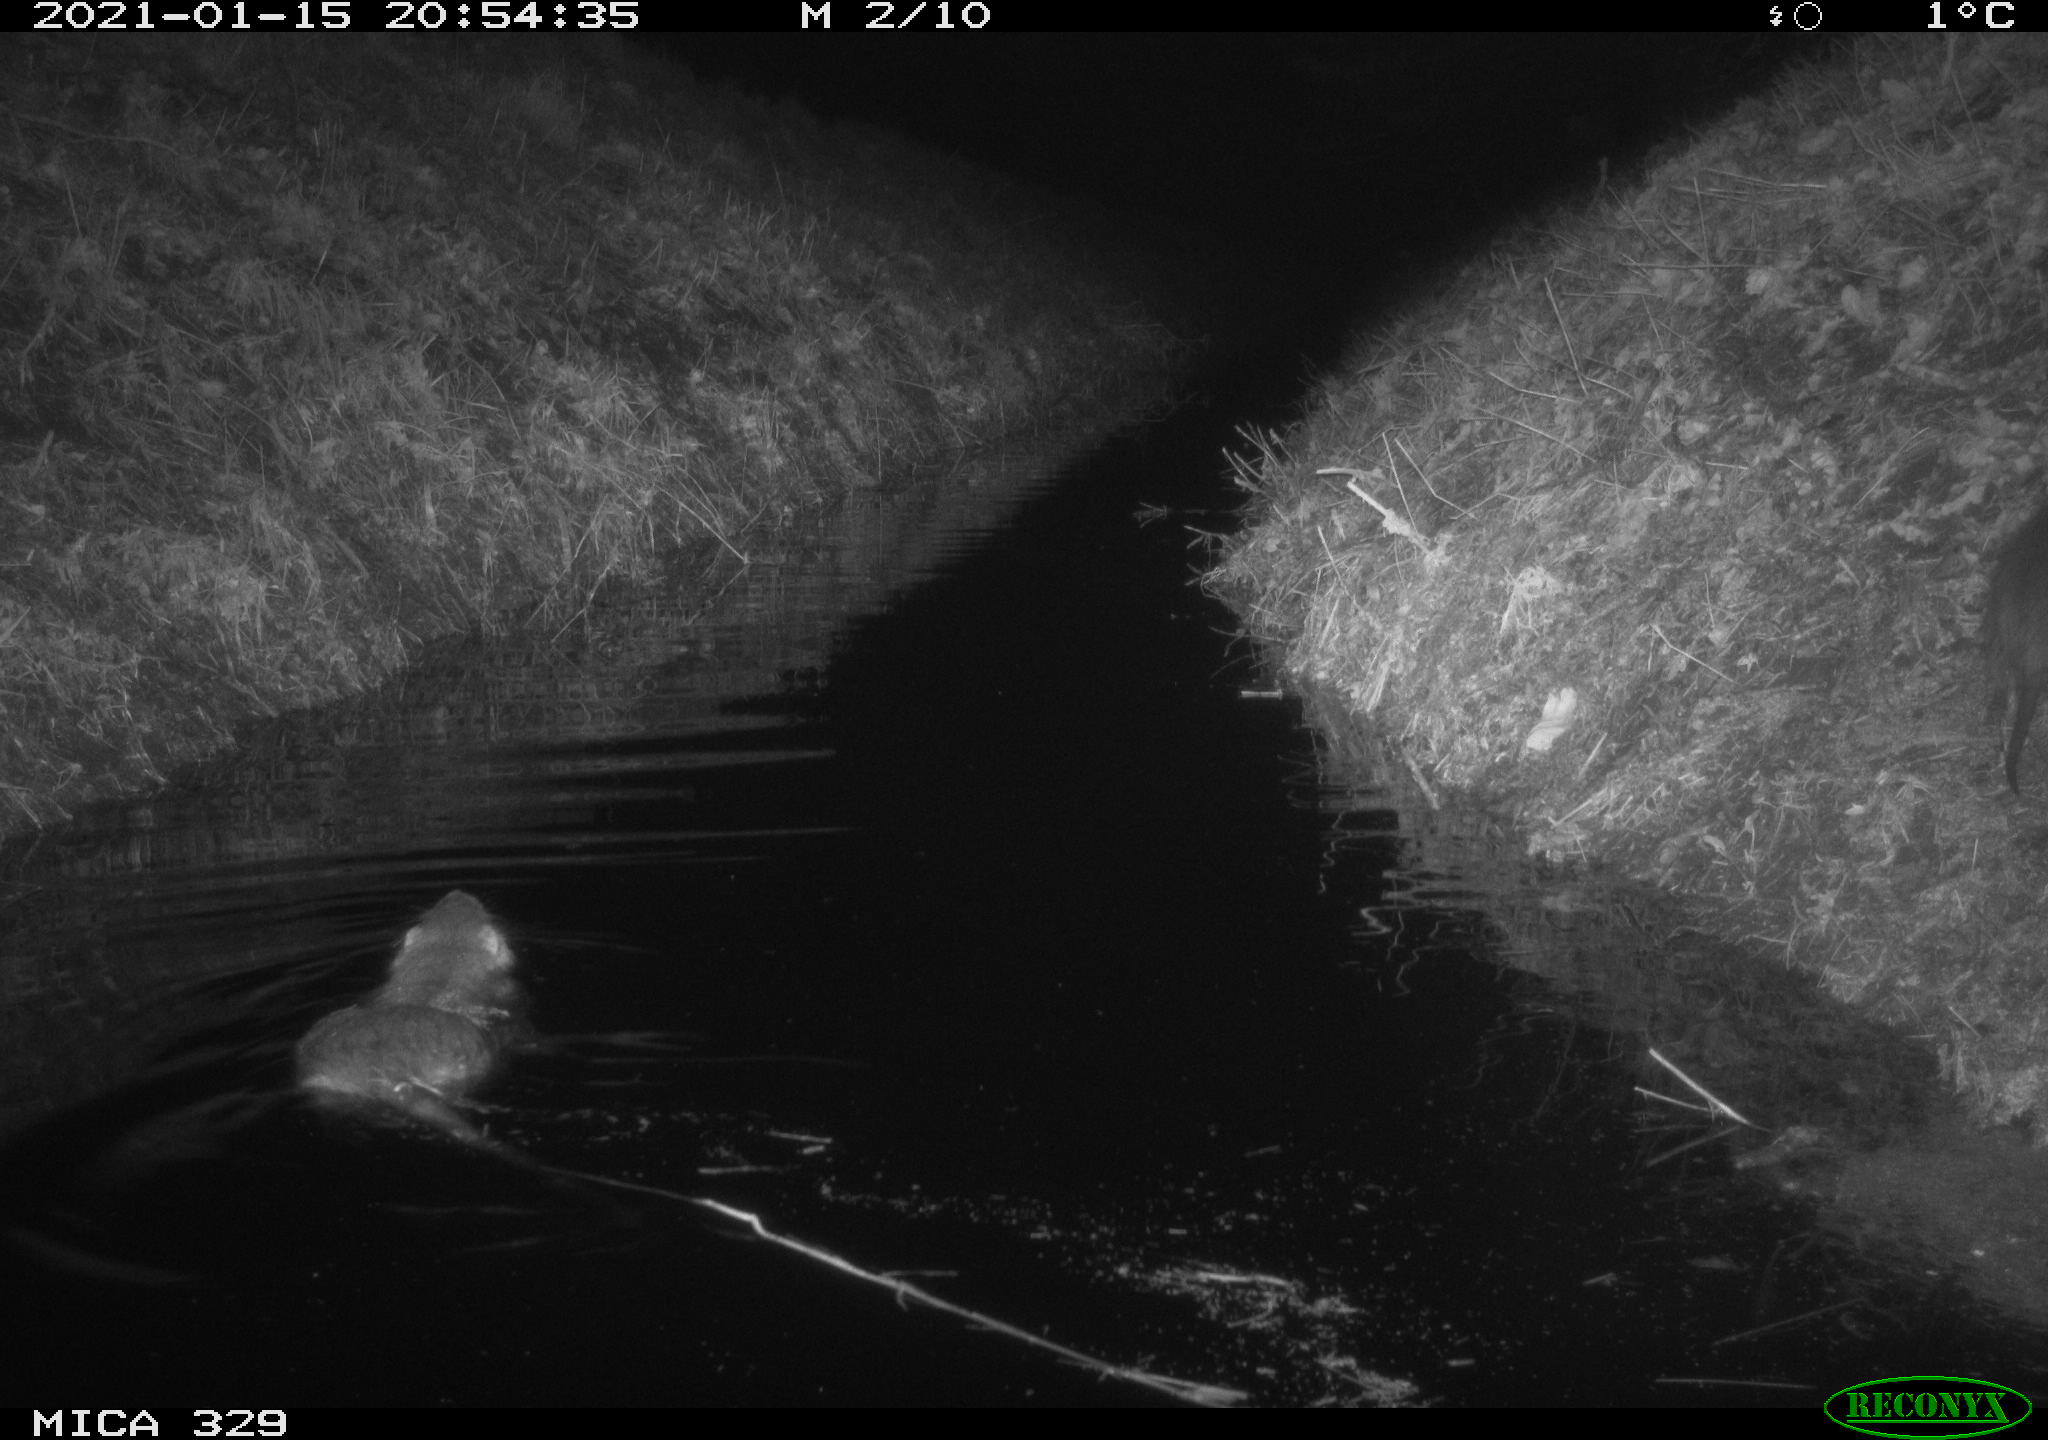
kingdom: Animalia
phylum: Chordata
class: Mammalia
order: Rodentia
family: Myocastoridae
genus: Myocastor
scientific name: Myocastor coypus
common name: Coypu
